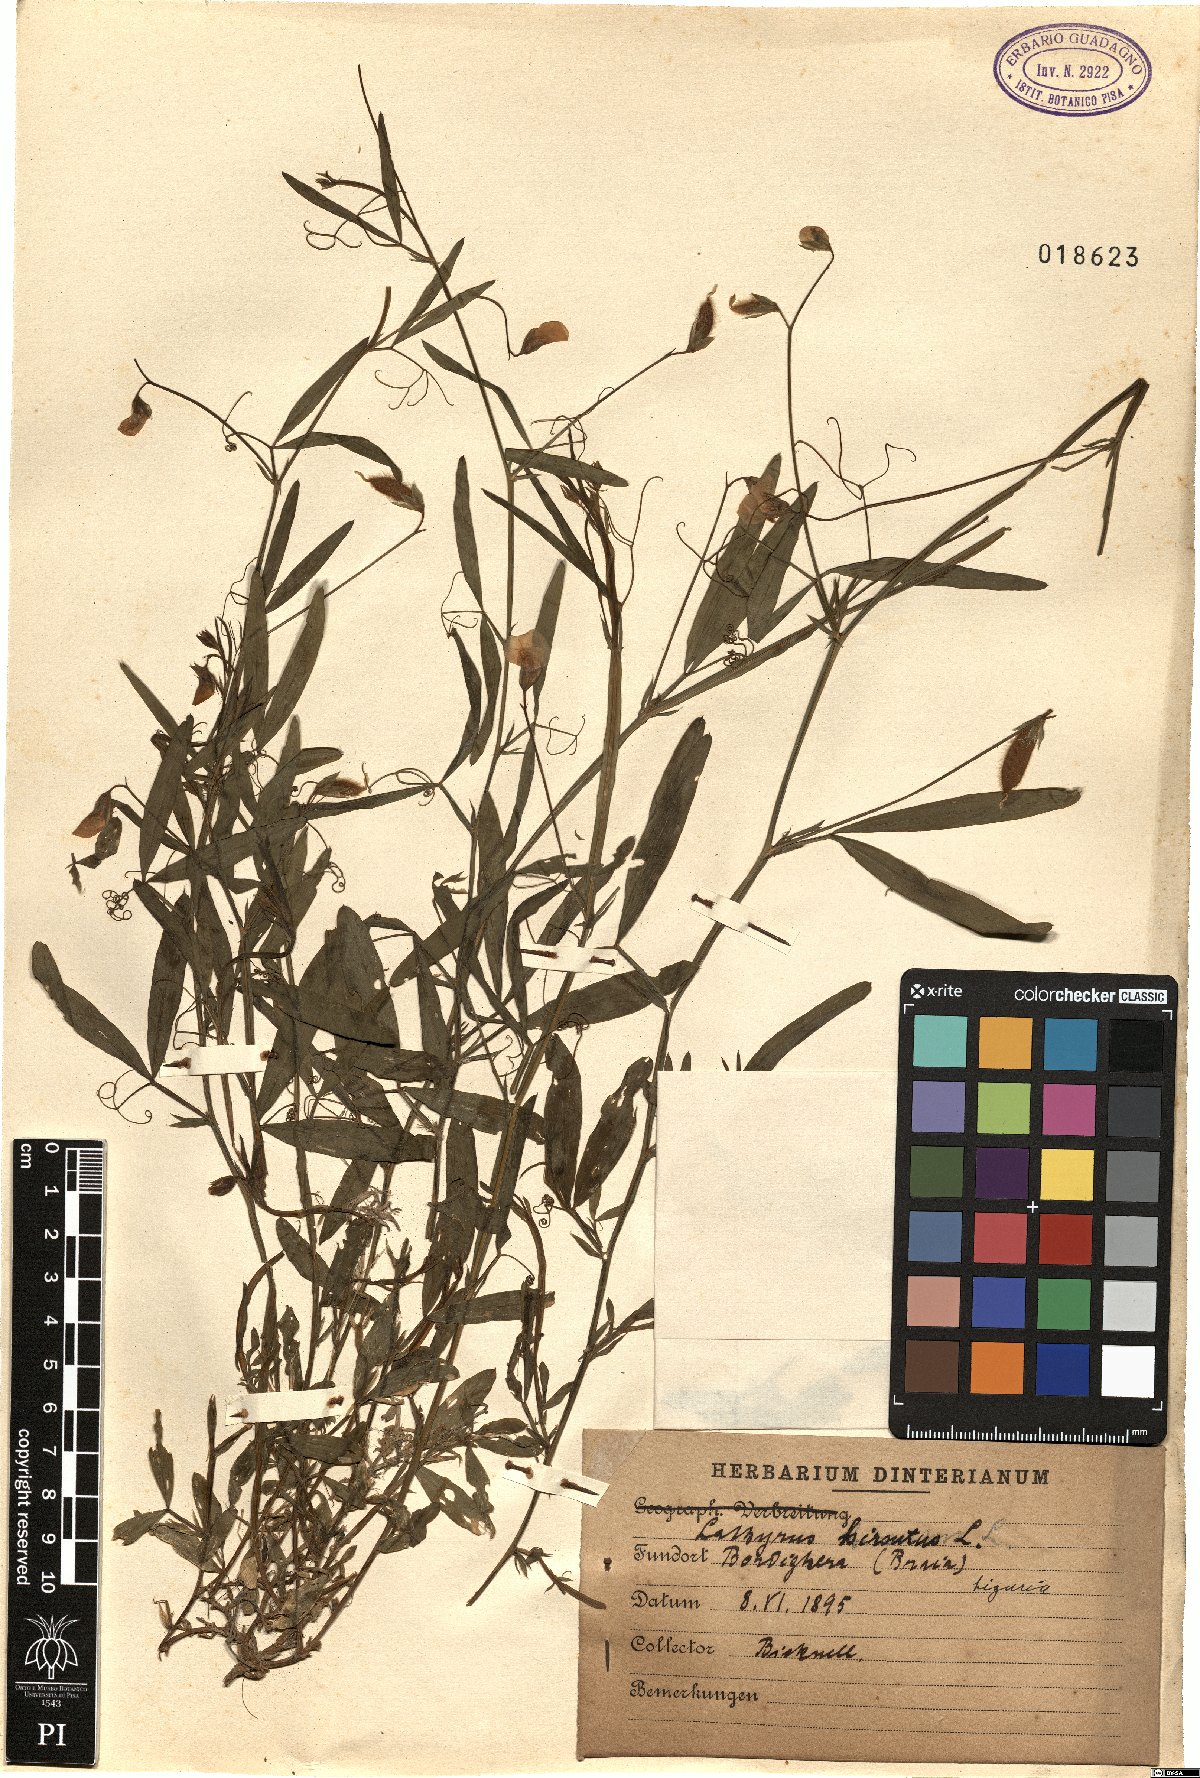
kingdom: Plantae
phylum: Tracheophyta
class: Magnoliopsida
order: Fabales
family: Fabaceae
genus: Lathyrus
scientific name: Lathyrus hirsutus
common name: Hairy vetchling
